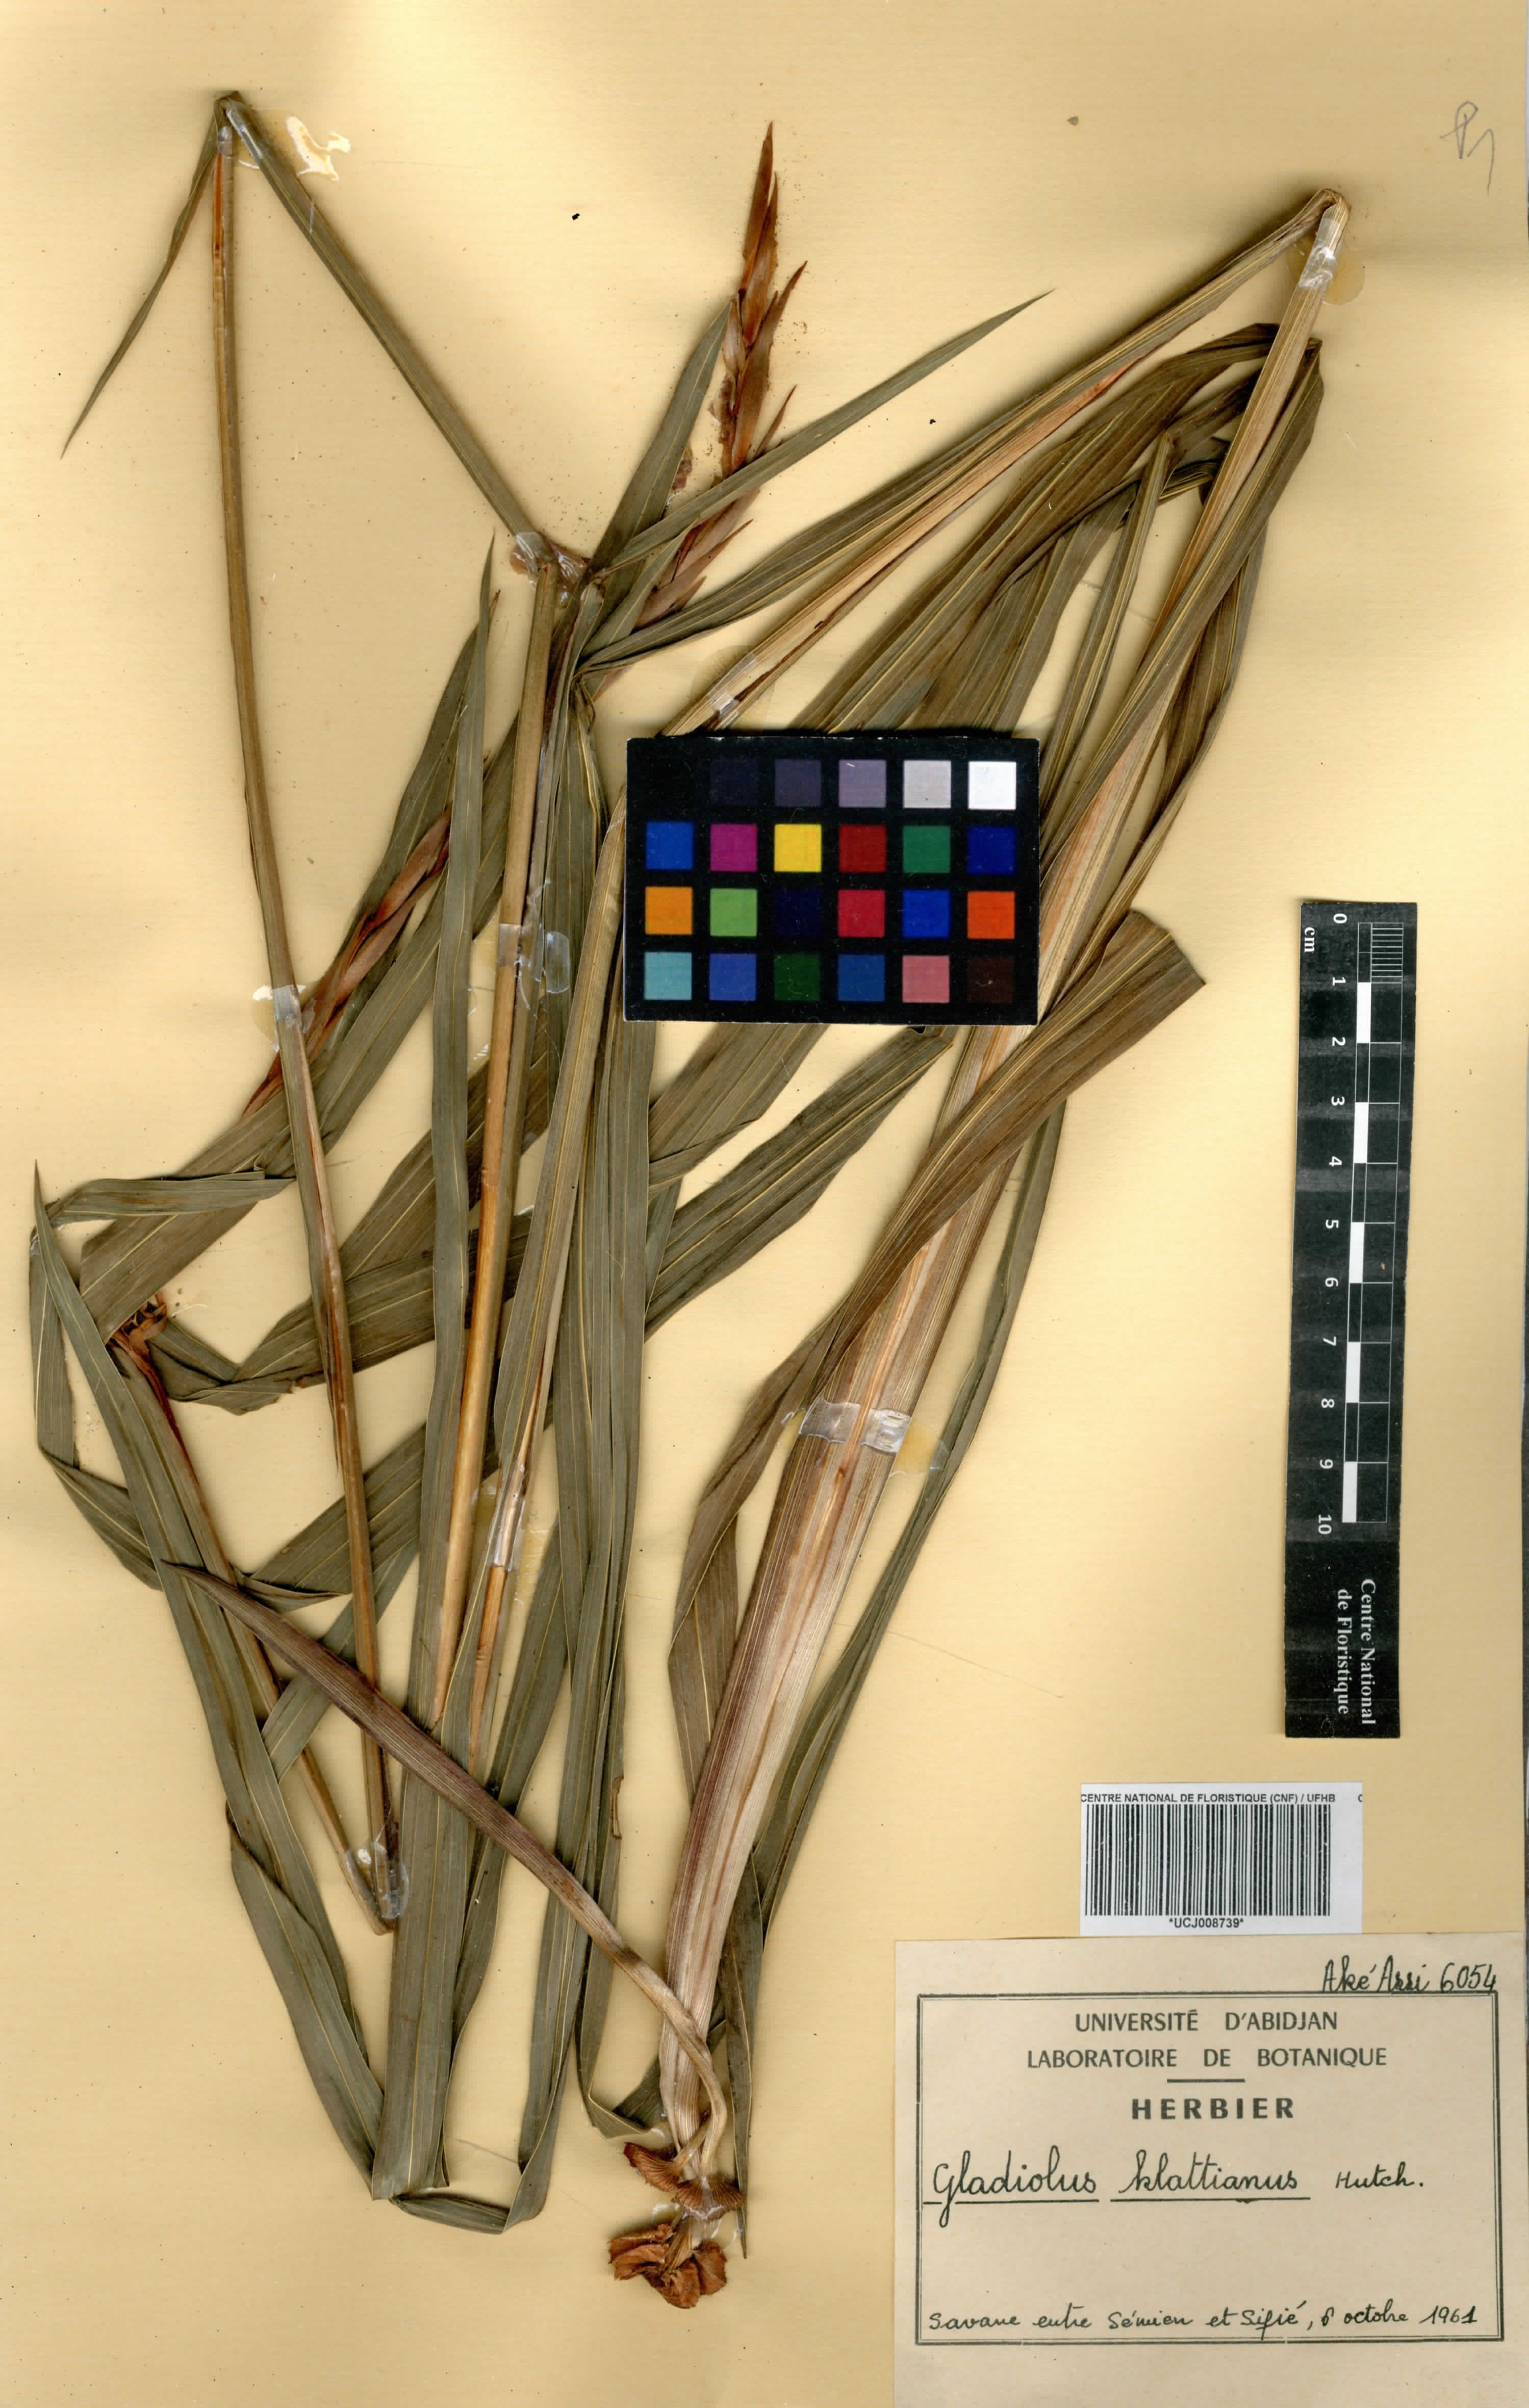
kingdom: Plantae
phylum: Tracheophyta
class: Liliopsida
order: Asparagales
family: Iridaceae
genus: Gladiolus
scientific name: Gladiolus gregarius
